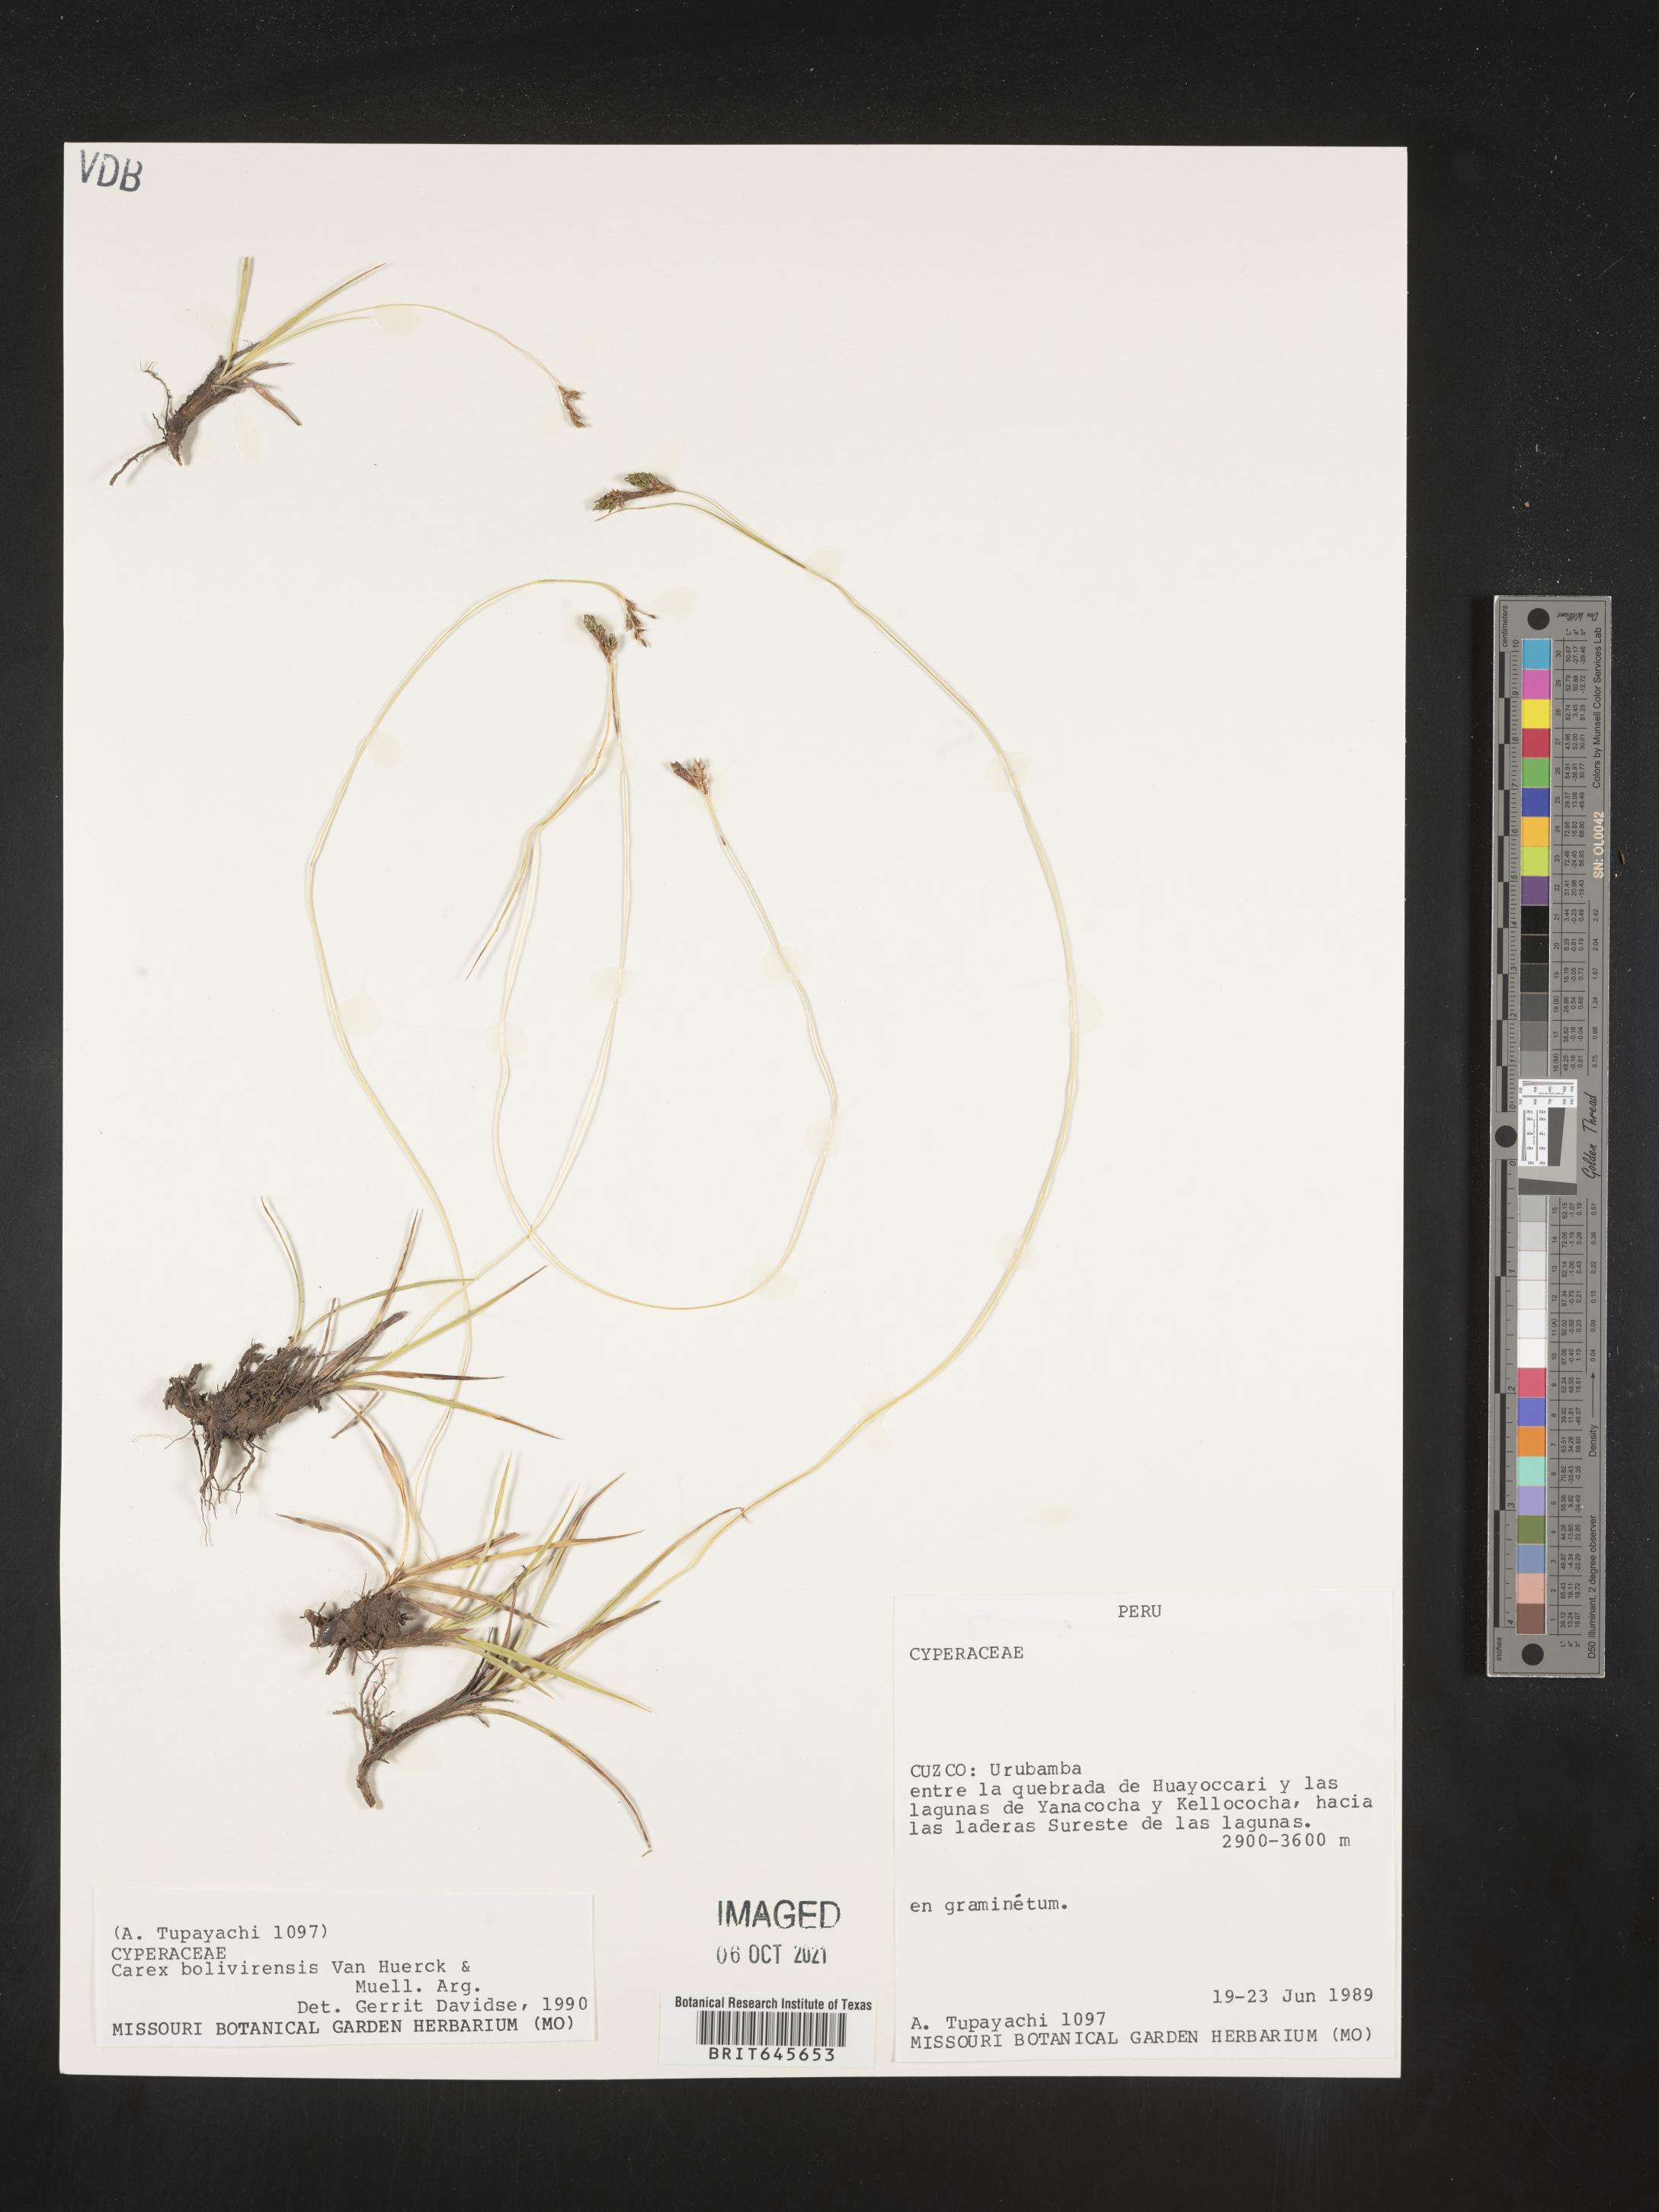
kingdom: Plantae
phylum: Tracheophyta
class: Liliopsida
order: Poales
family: Cyperaceae
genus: Carex
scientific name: Carex boliviensis
